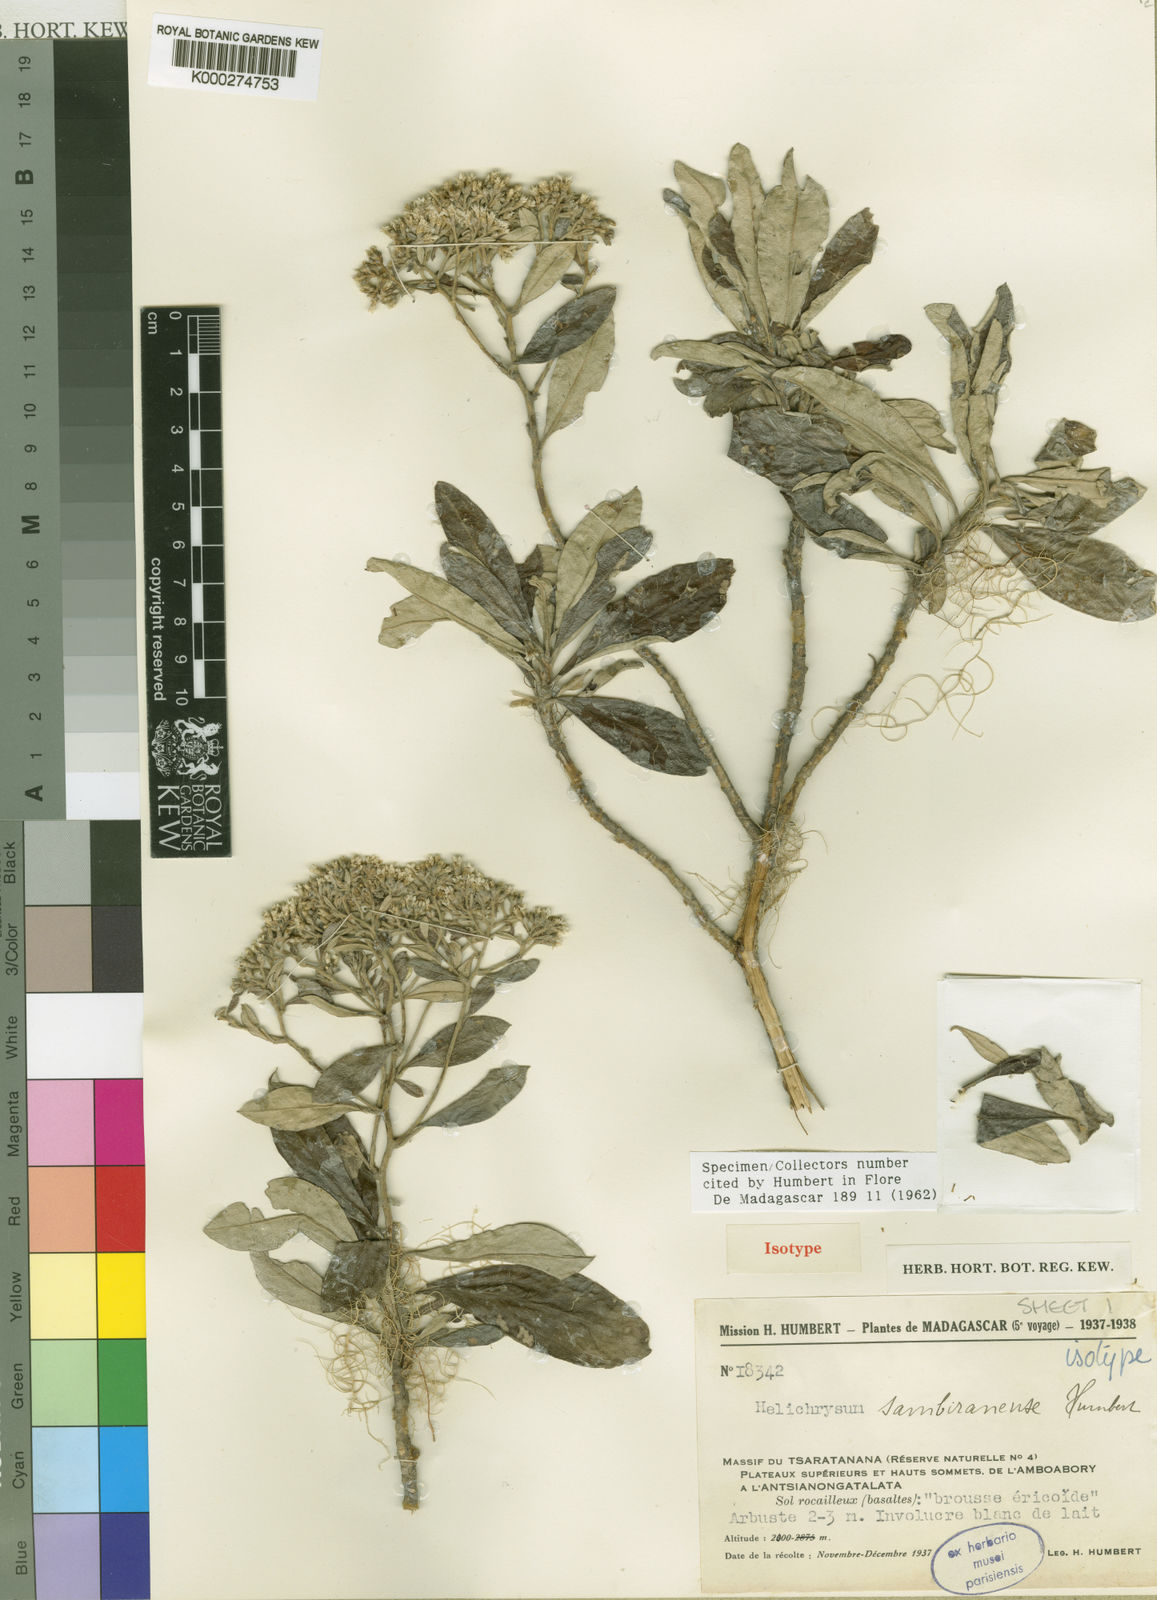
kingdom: Plantae
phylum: Tracheophyta
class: Magnoliopsida
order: Asterales
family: Asteraceae
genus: Helichrysum
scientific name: Helichrysum cordifolium
